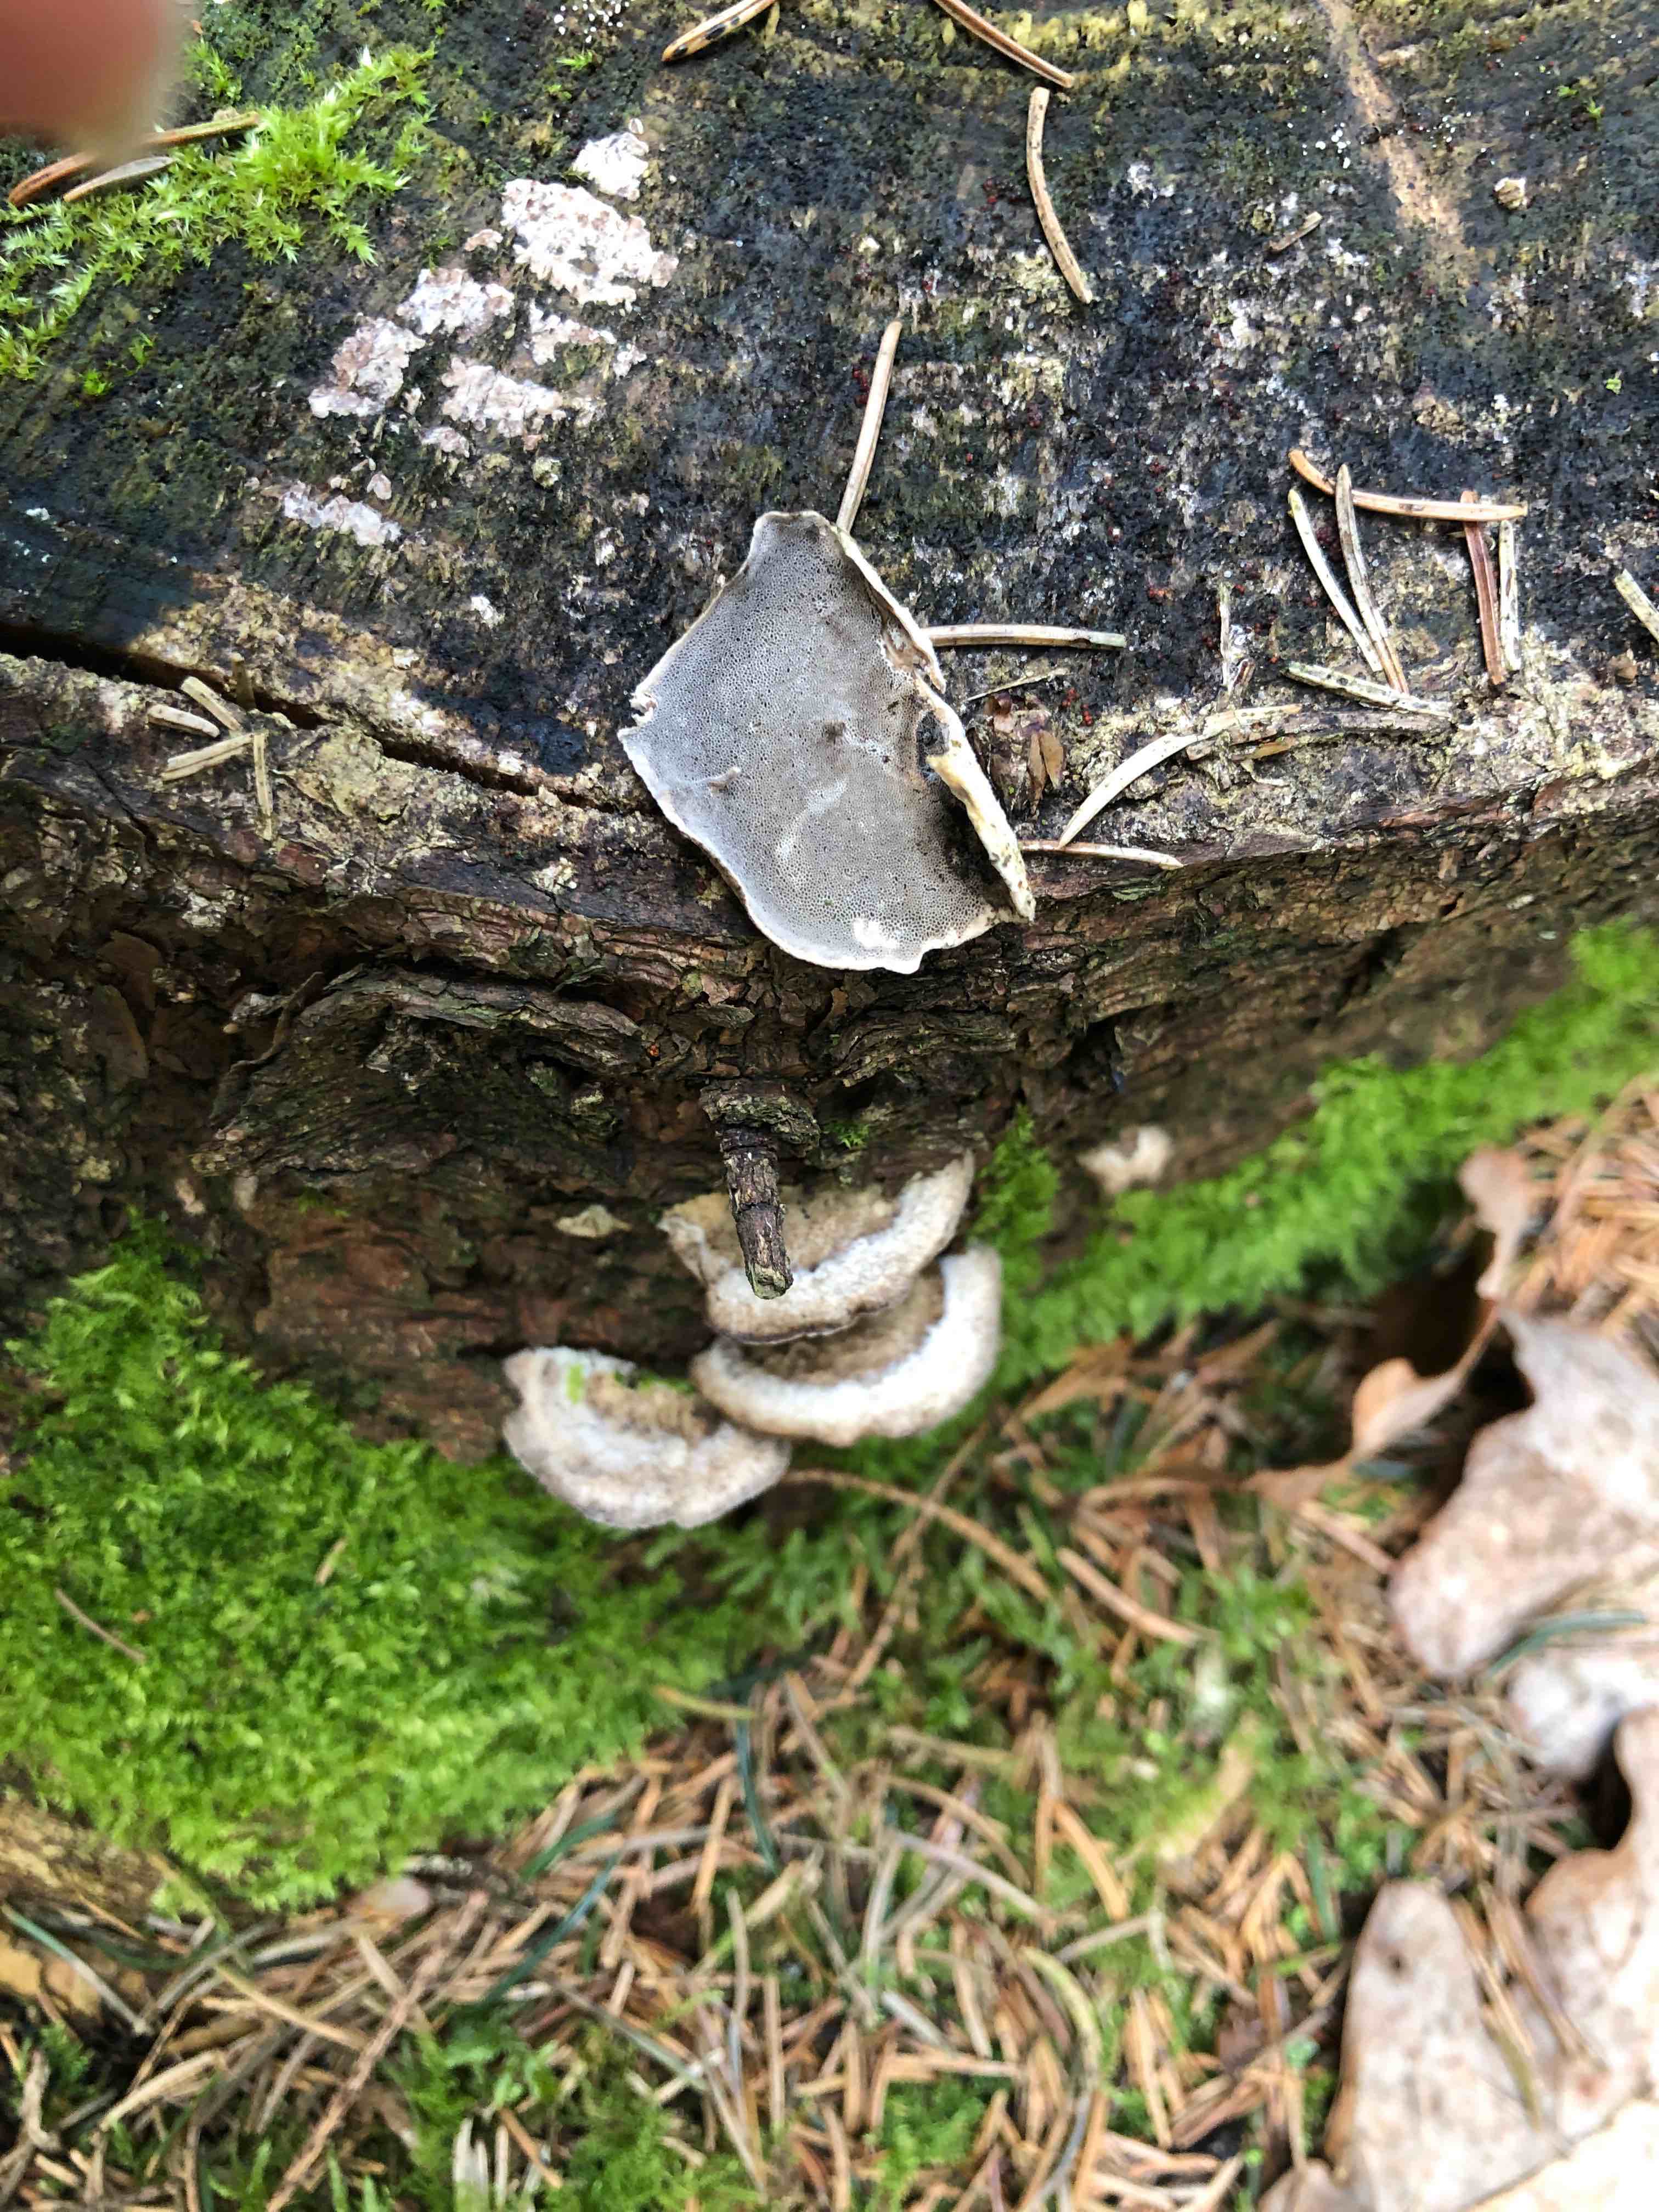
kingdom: Fungi
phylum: Basidiomycota
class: Agaricomycetes
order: Polyporales
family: Phanerochaetaceae
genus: Bjerkandera
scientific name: Bjerkandera adusta
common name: sveden sodporesvamp
